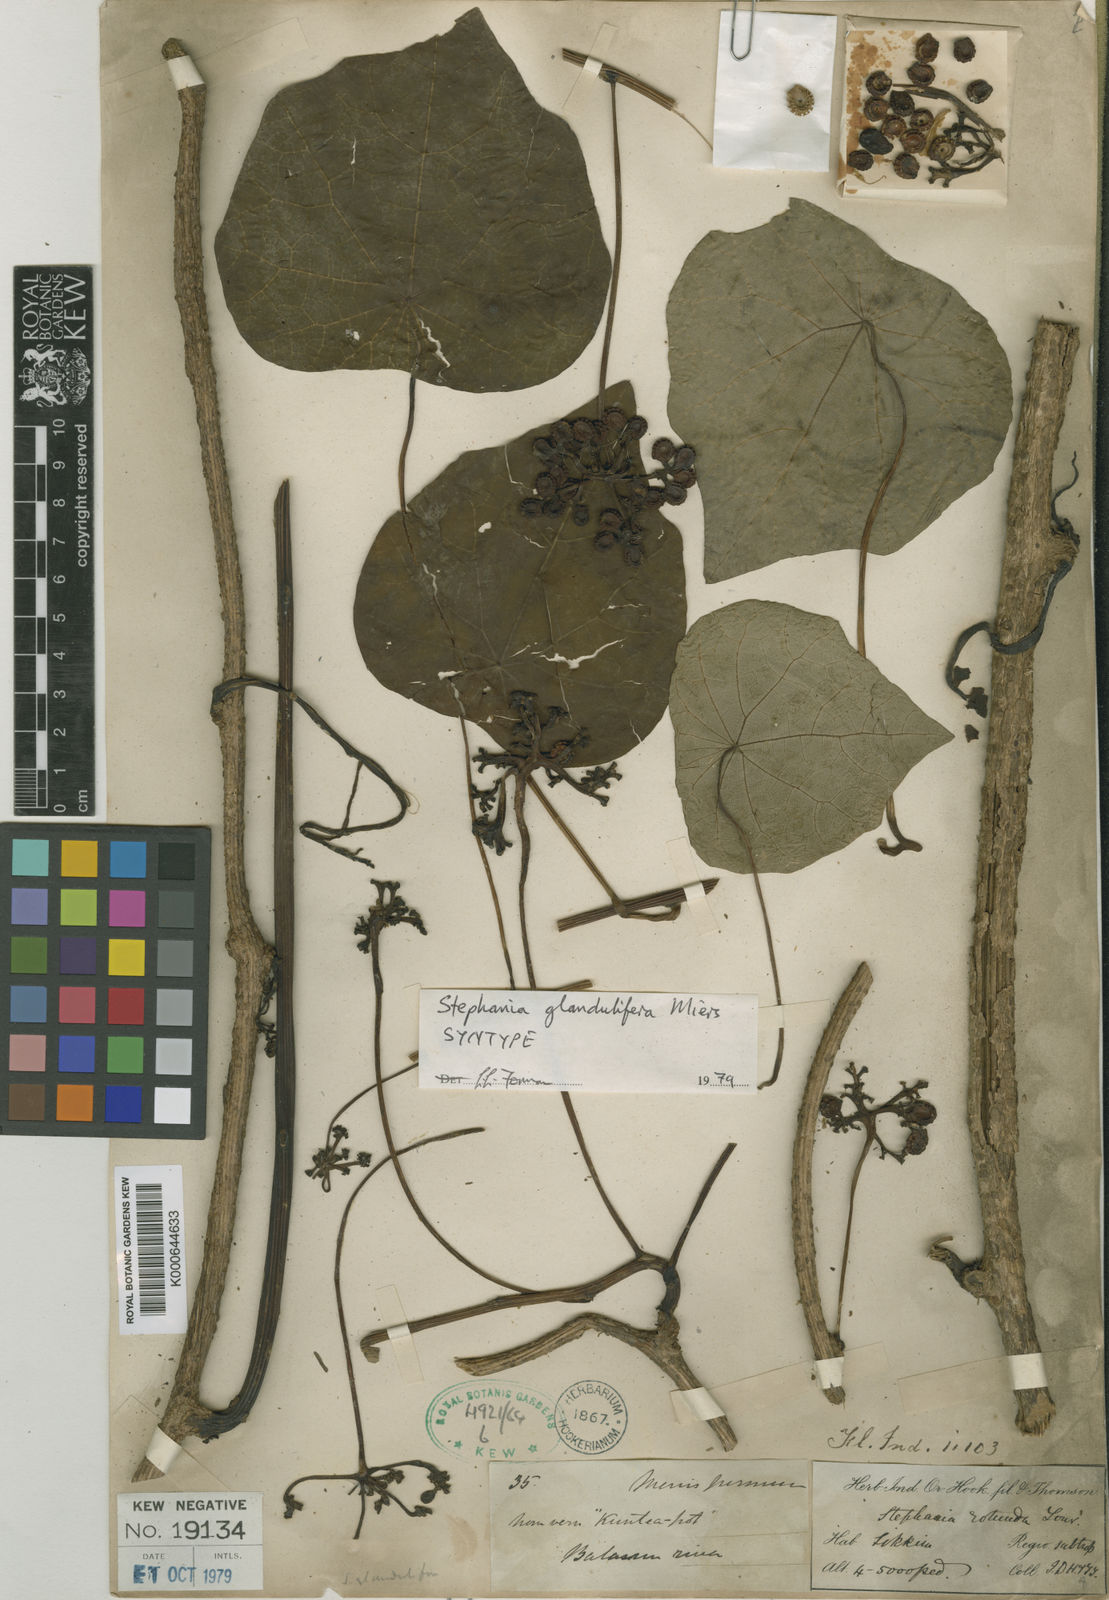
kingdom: Plantae
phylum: Tracheophyta
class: Magnoliopsida
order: Ranunculales
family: Menispermaceae
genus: Stephania
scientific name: Stephania glandulifera
